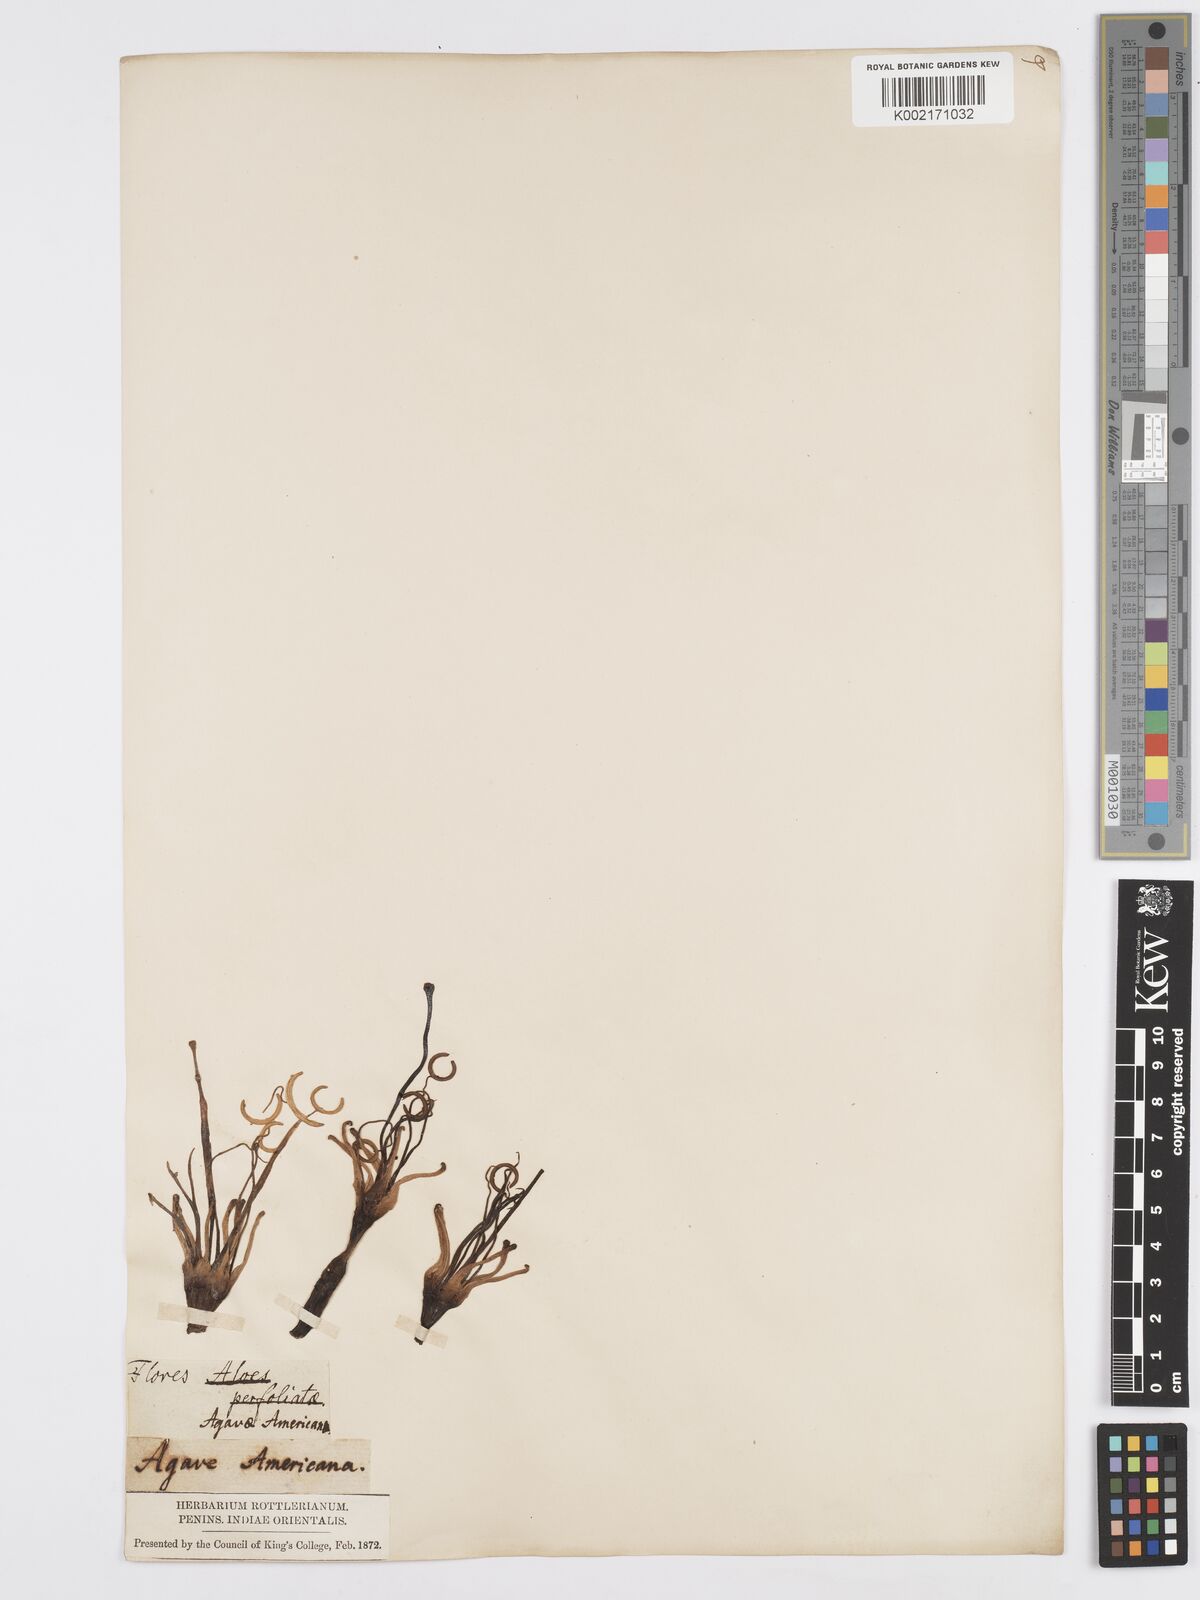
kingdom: Plantae
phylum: Tracheophyta
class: Liliopsida
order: Asparagales
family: Asparagaceae
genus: Agave
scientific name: Agave americana
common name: Centuryplant
